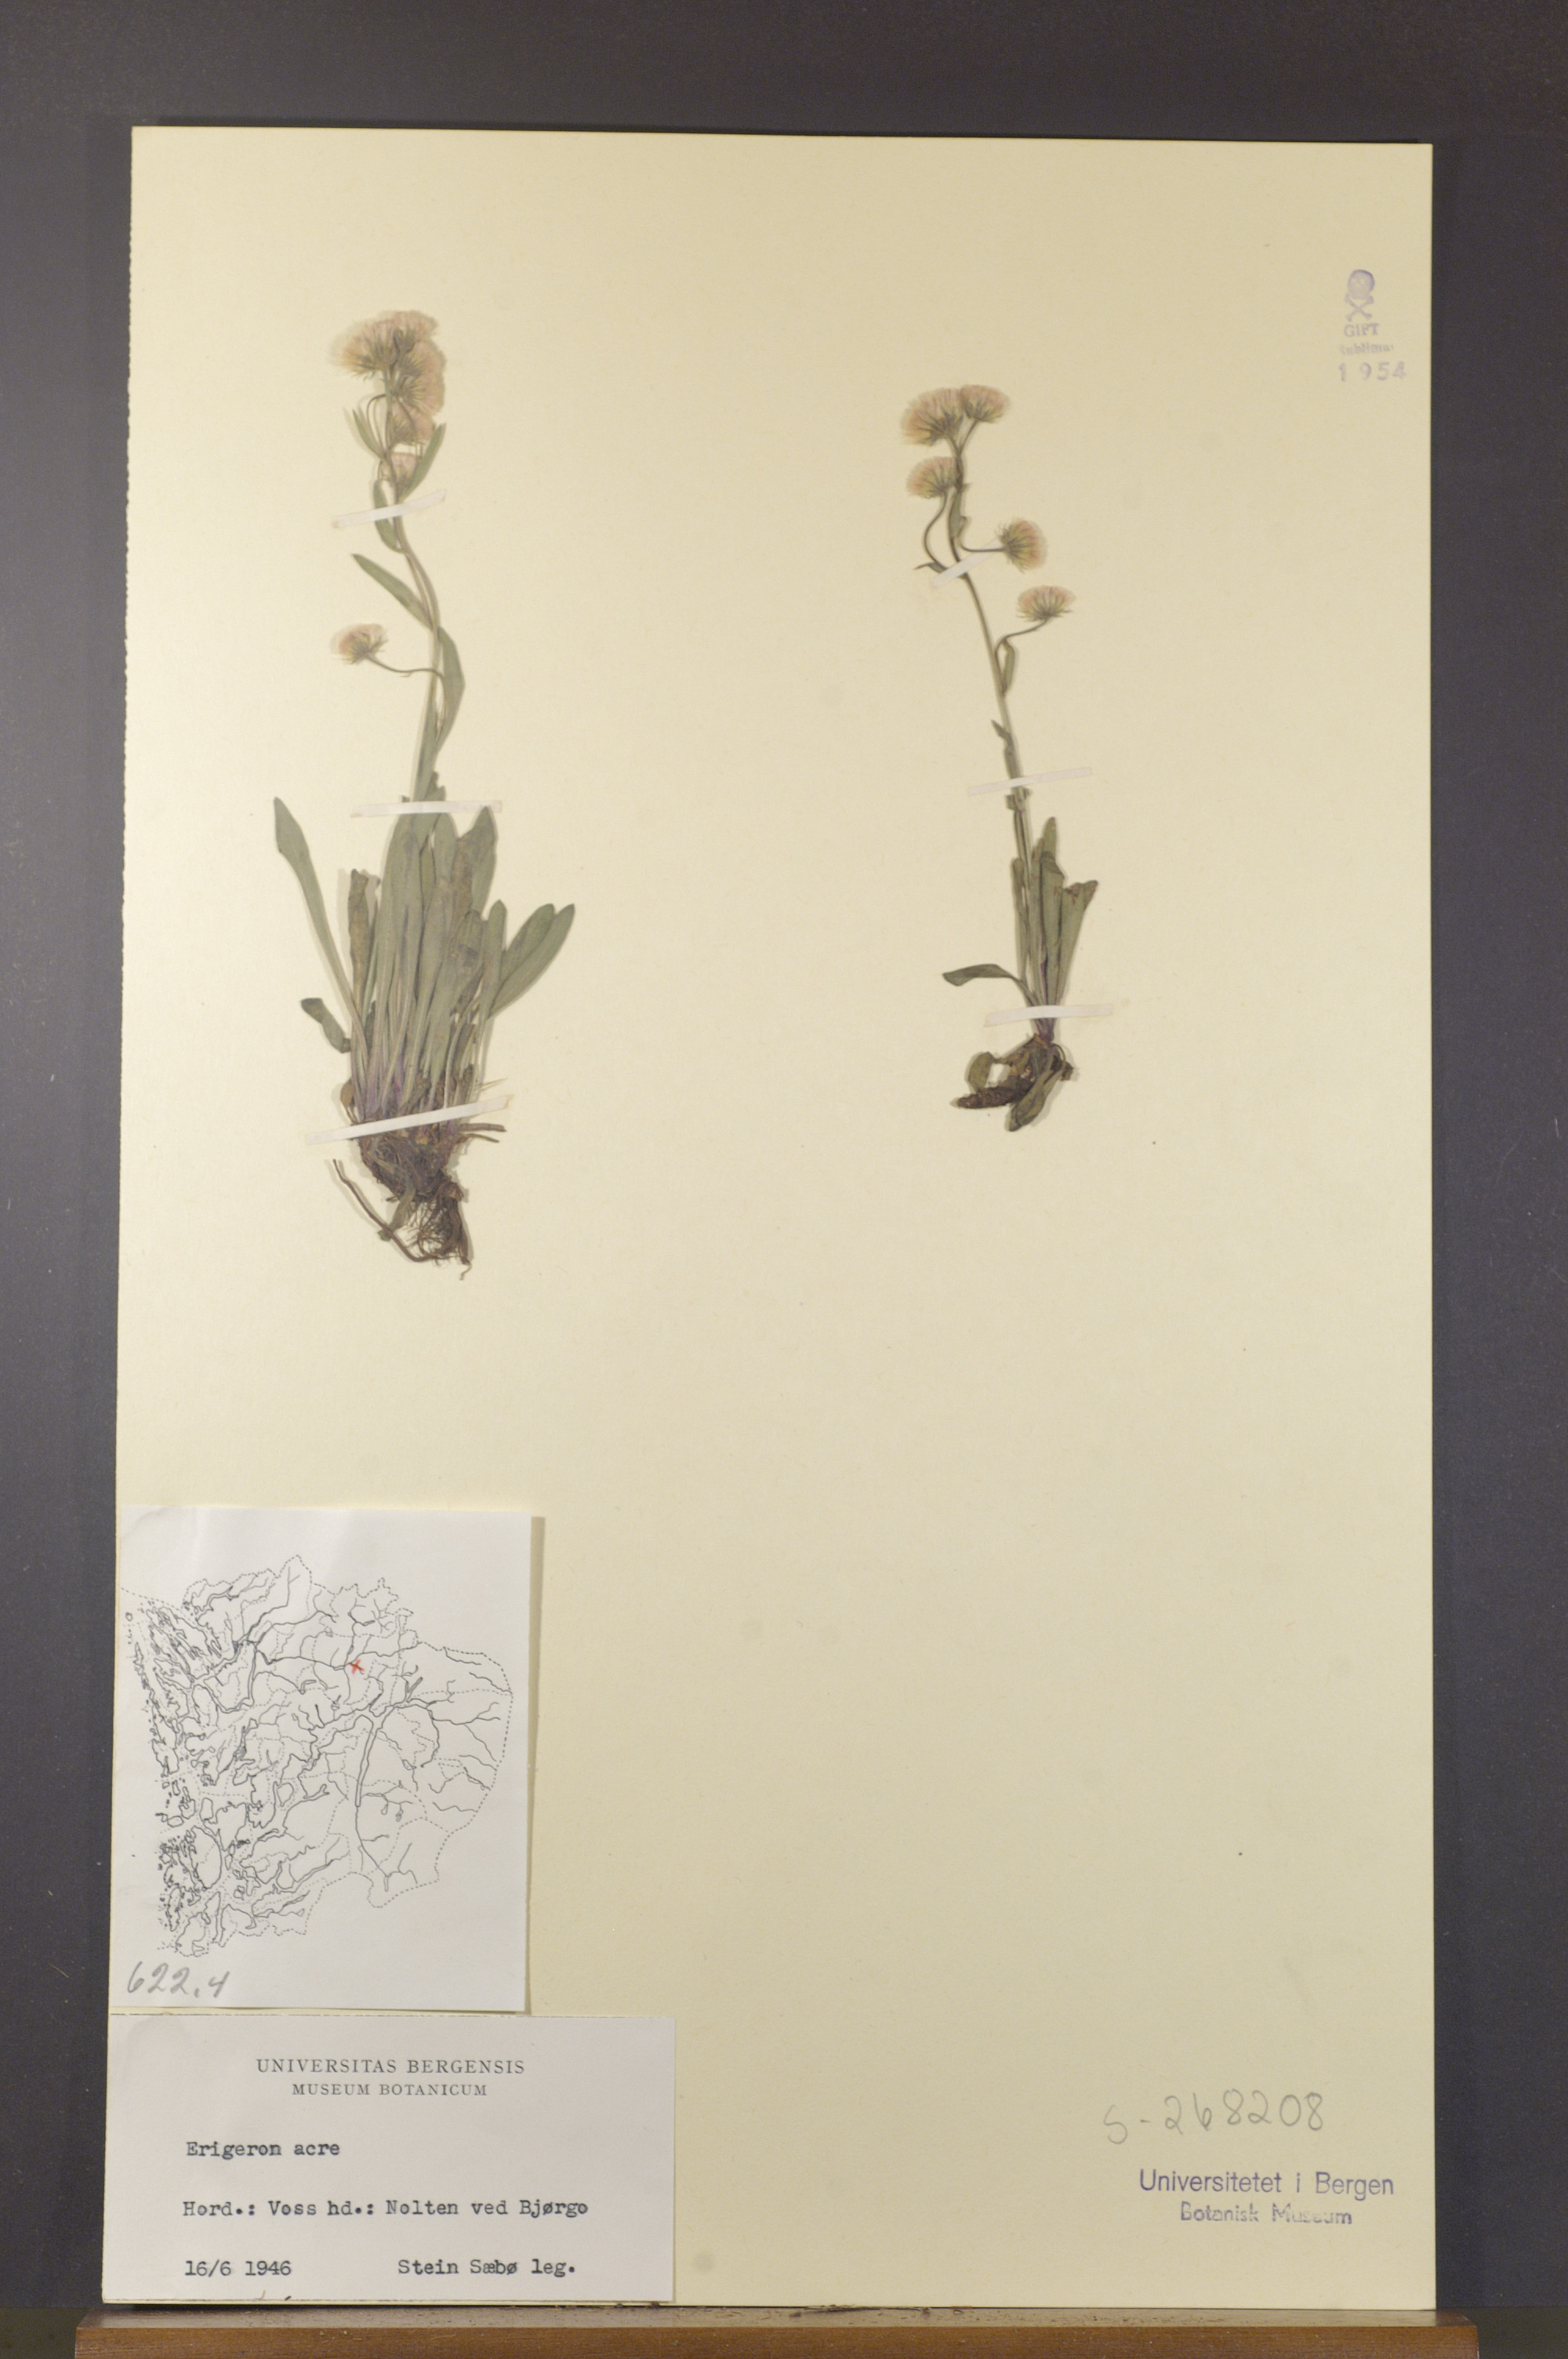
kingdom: Plantae
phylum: Tracheophyta
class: Magnoliopsida
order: Asterales
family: Asteraceae
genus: Erigeron
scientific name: Erigeron acris
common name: Blue fleabane
